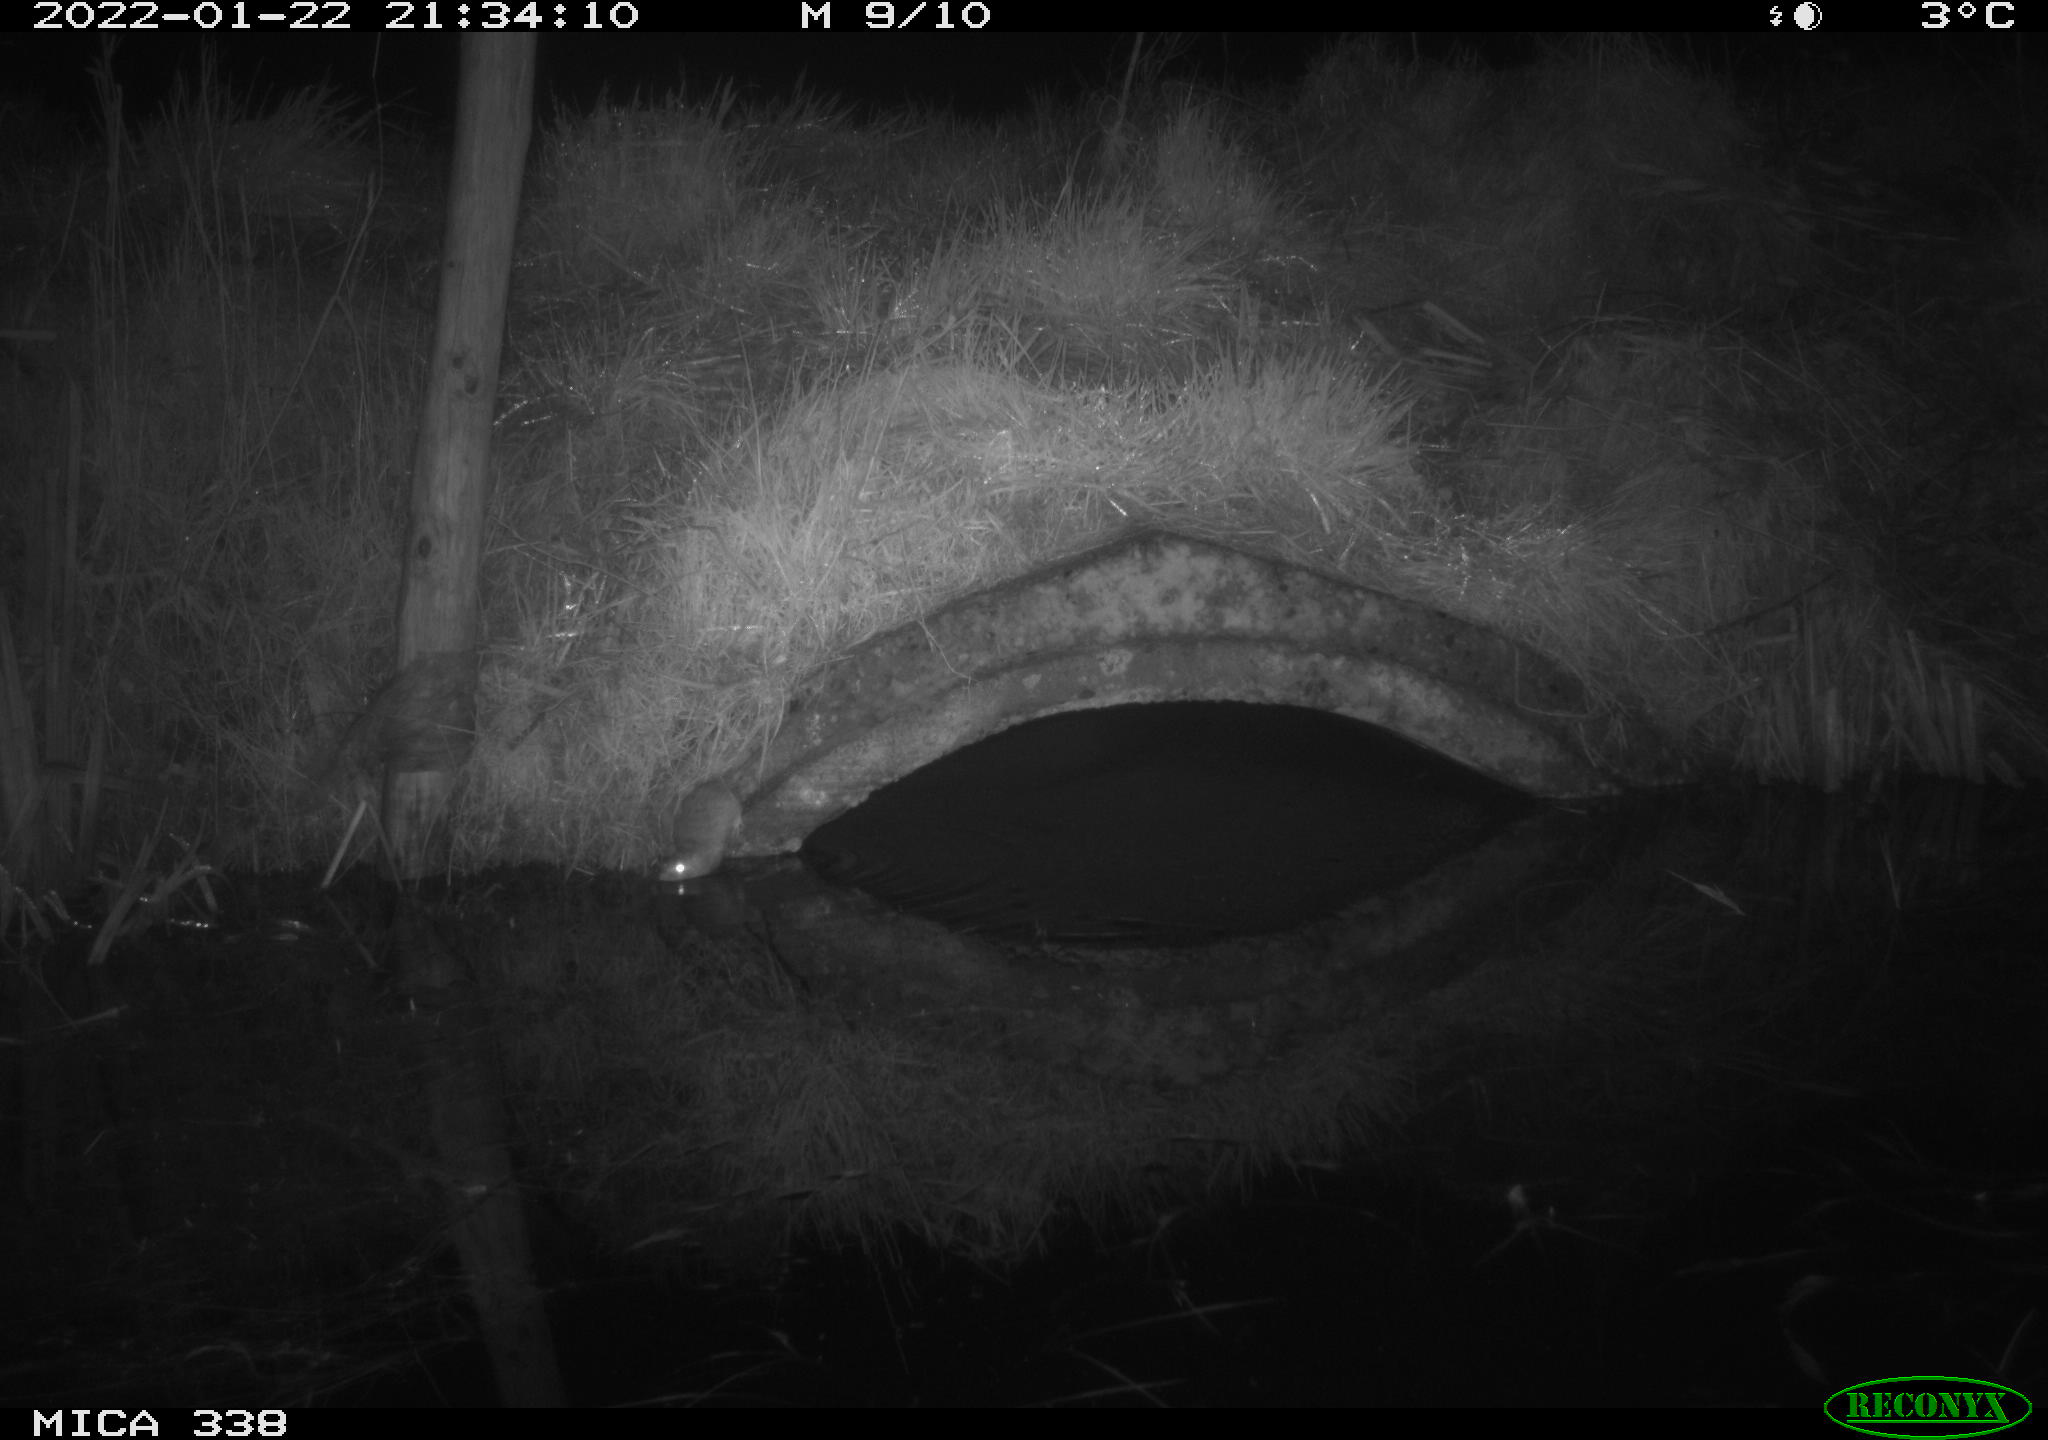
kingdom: Animalia
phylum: Chordata
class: Mammalia
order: Rodentia
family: Muridae
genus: Rattus
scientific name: Rattus norvegicus
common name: Brown rat
